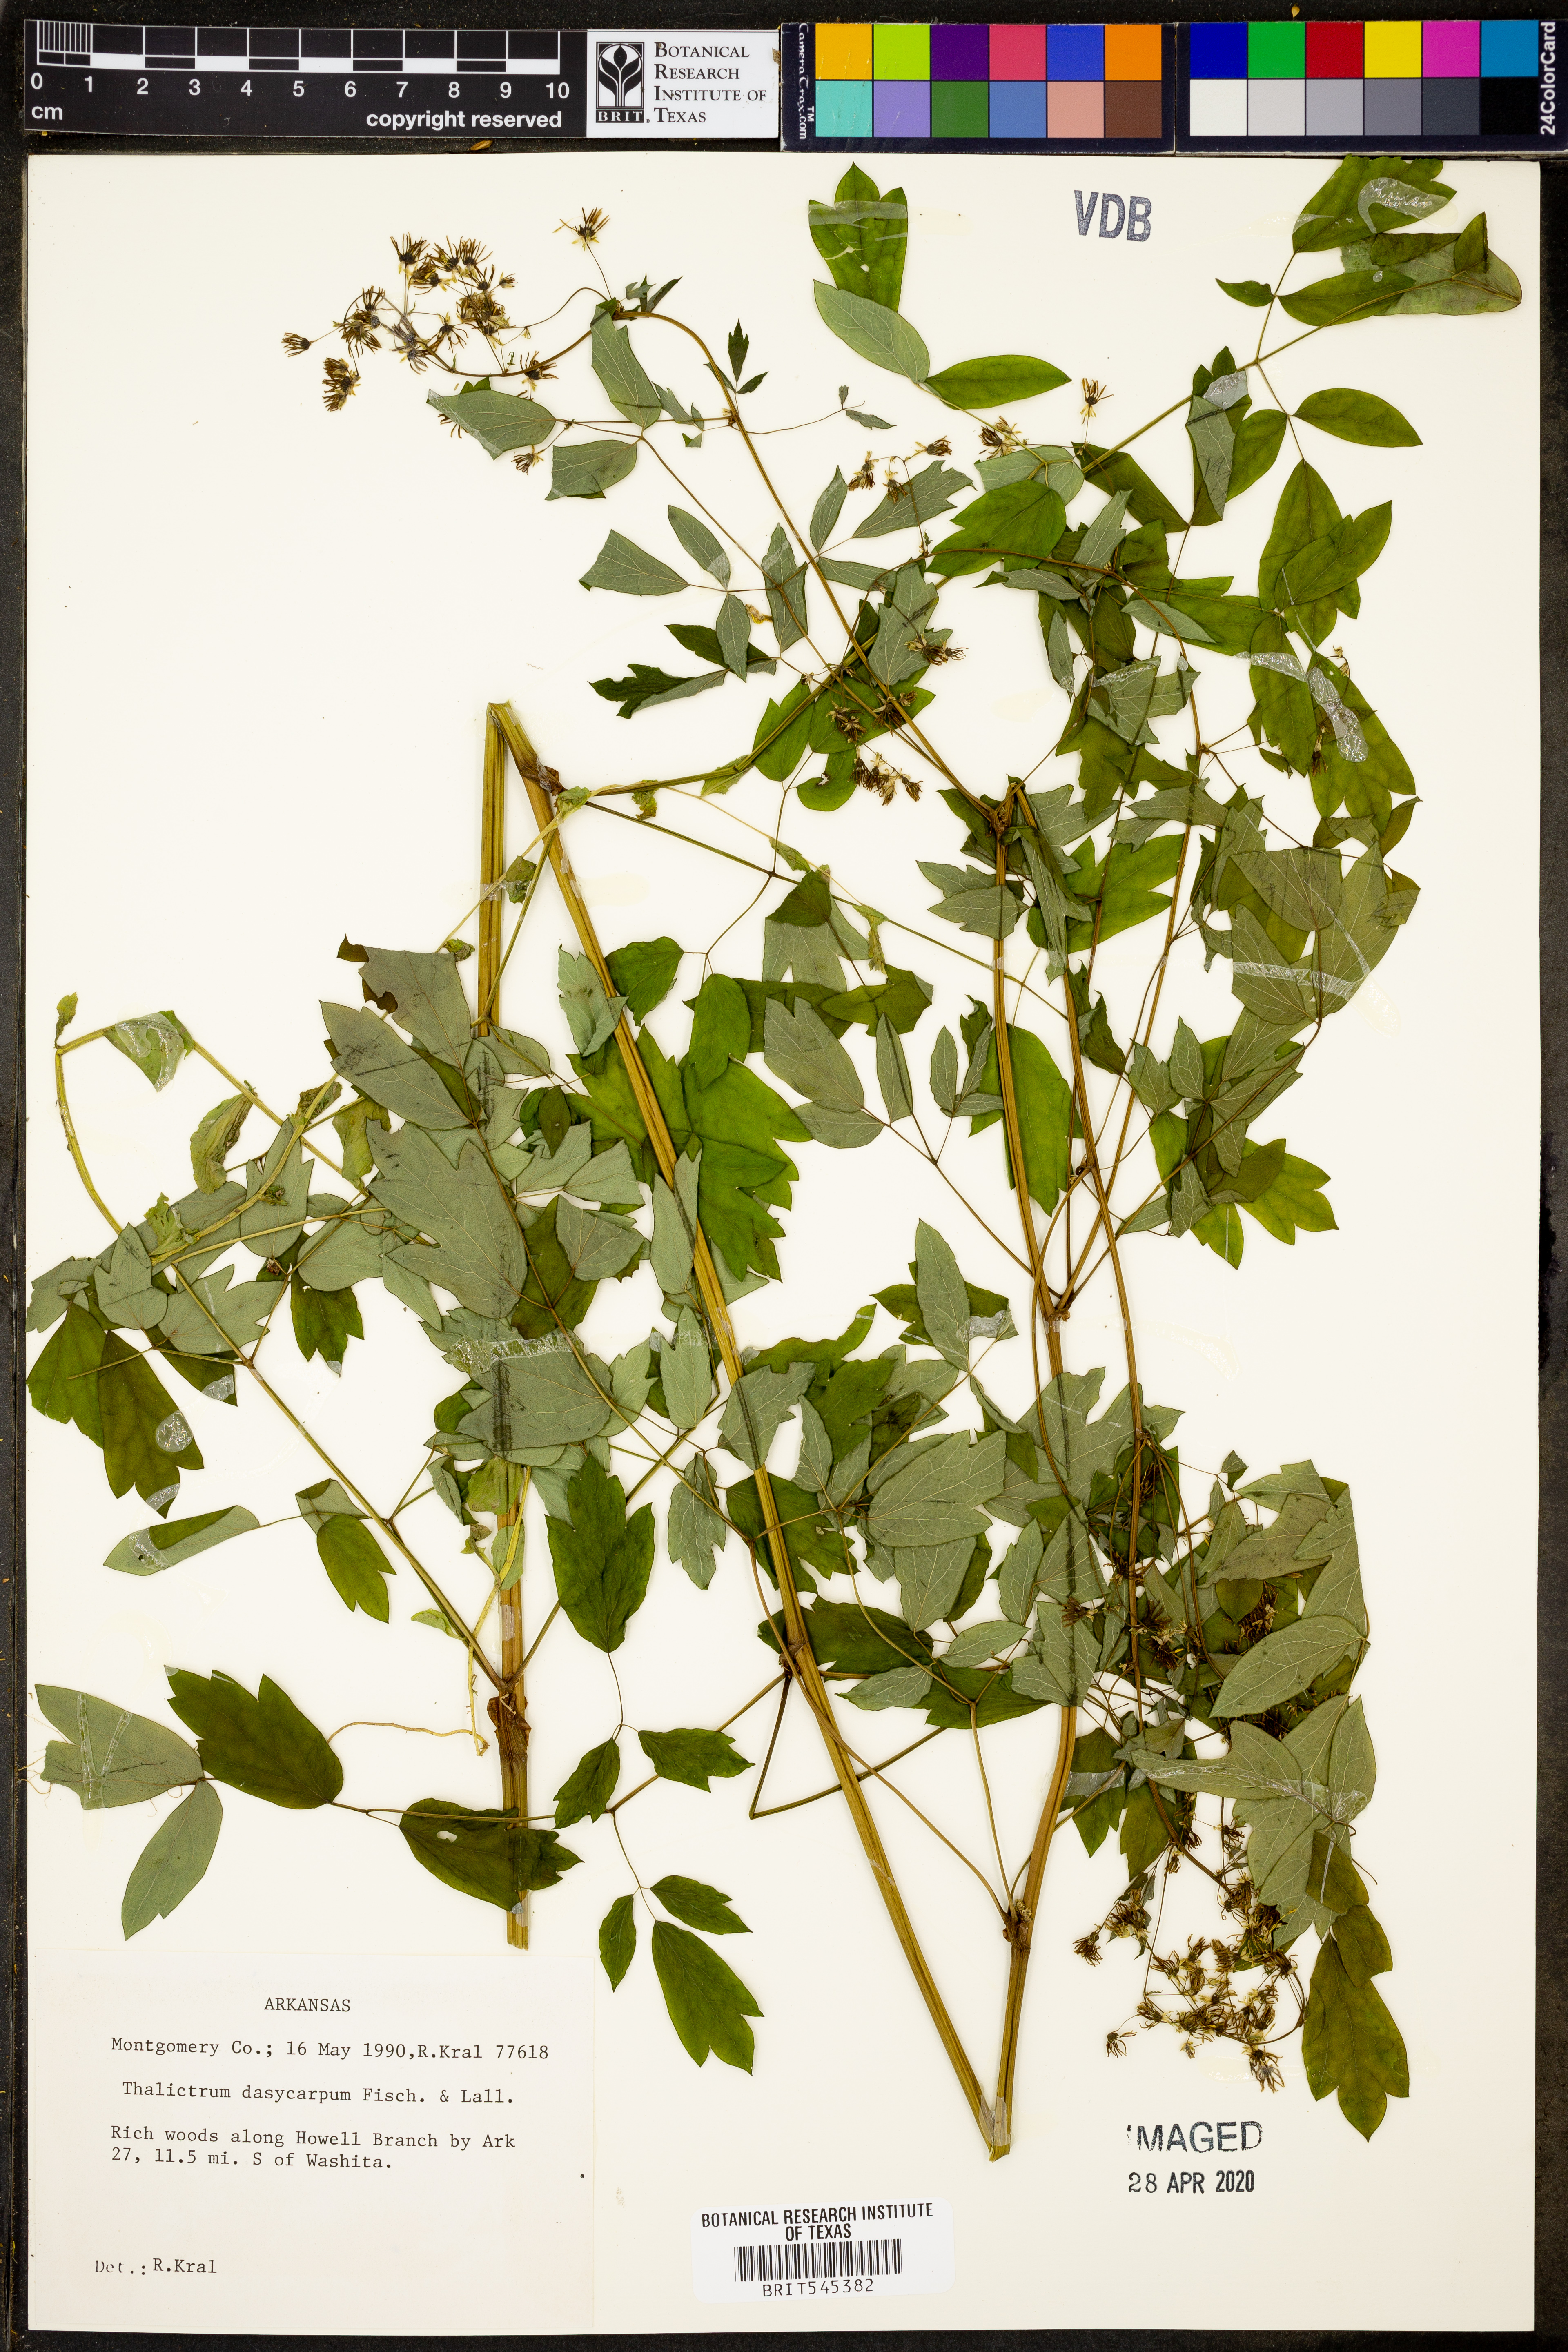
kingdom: Plantae
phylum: Tracheophyta
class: Magnoliopsida
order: Ranunculales
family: Ranunculaceae
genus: Thalictrum
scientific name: Thalictrum dasycarpum
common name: Purple meadow-rue
